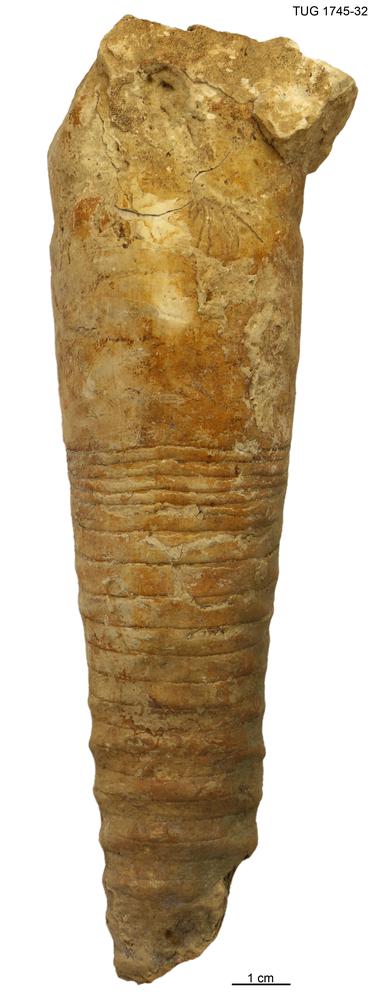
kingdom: Animalia
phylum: Mollusca
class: Cephalopoda
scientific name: Cephalopoda
